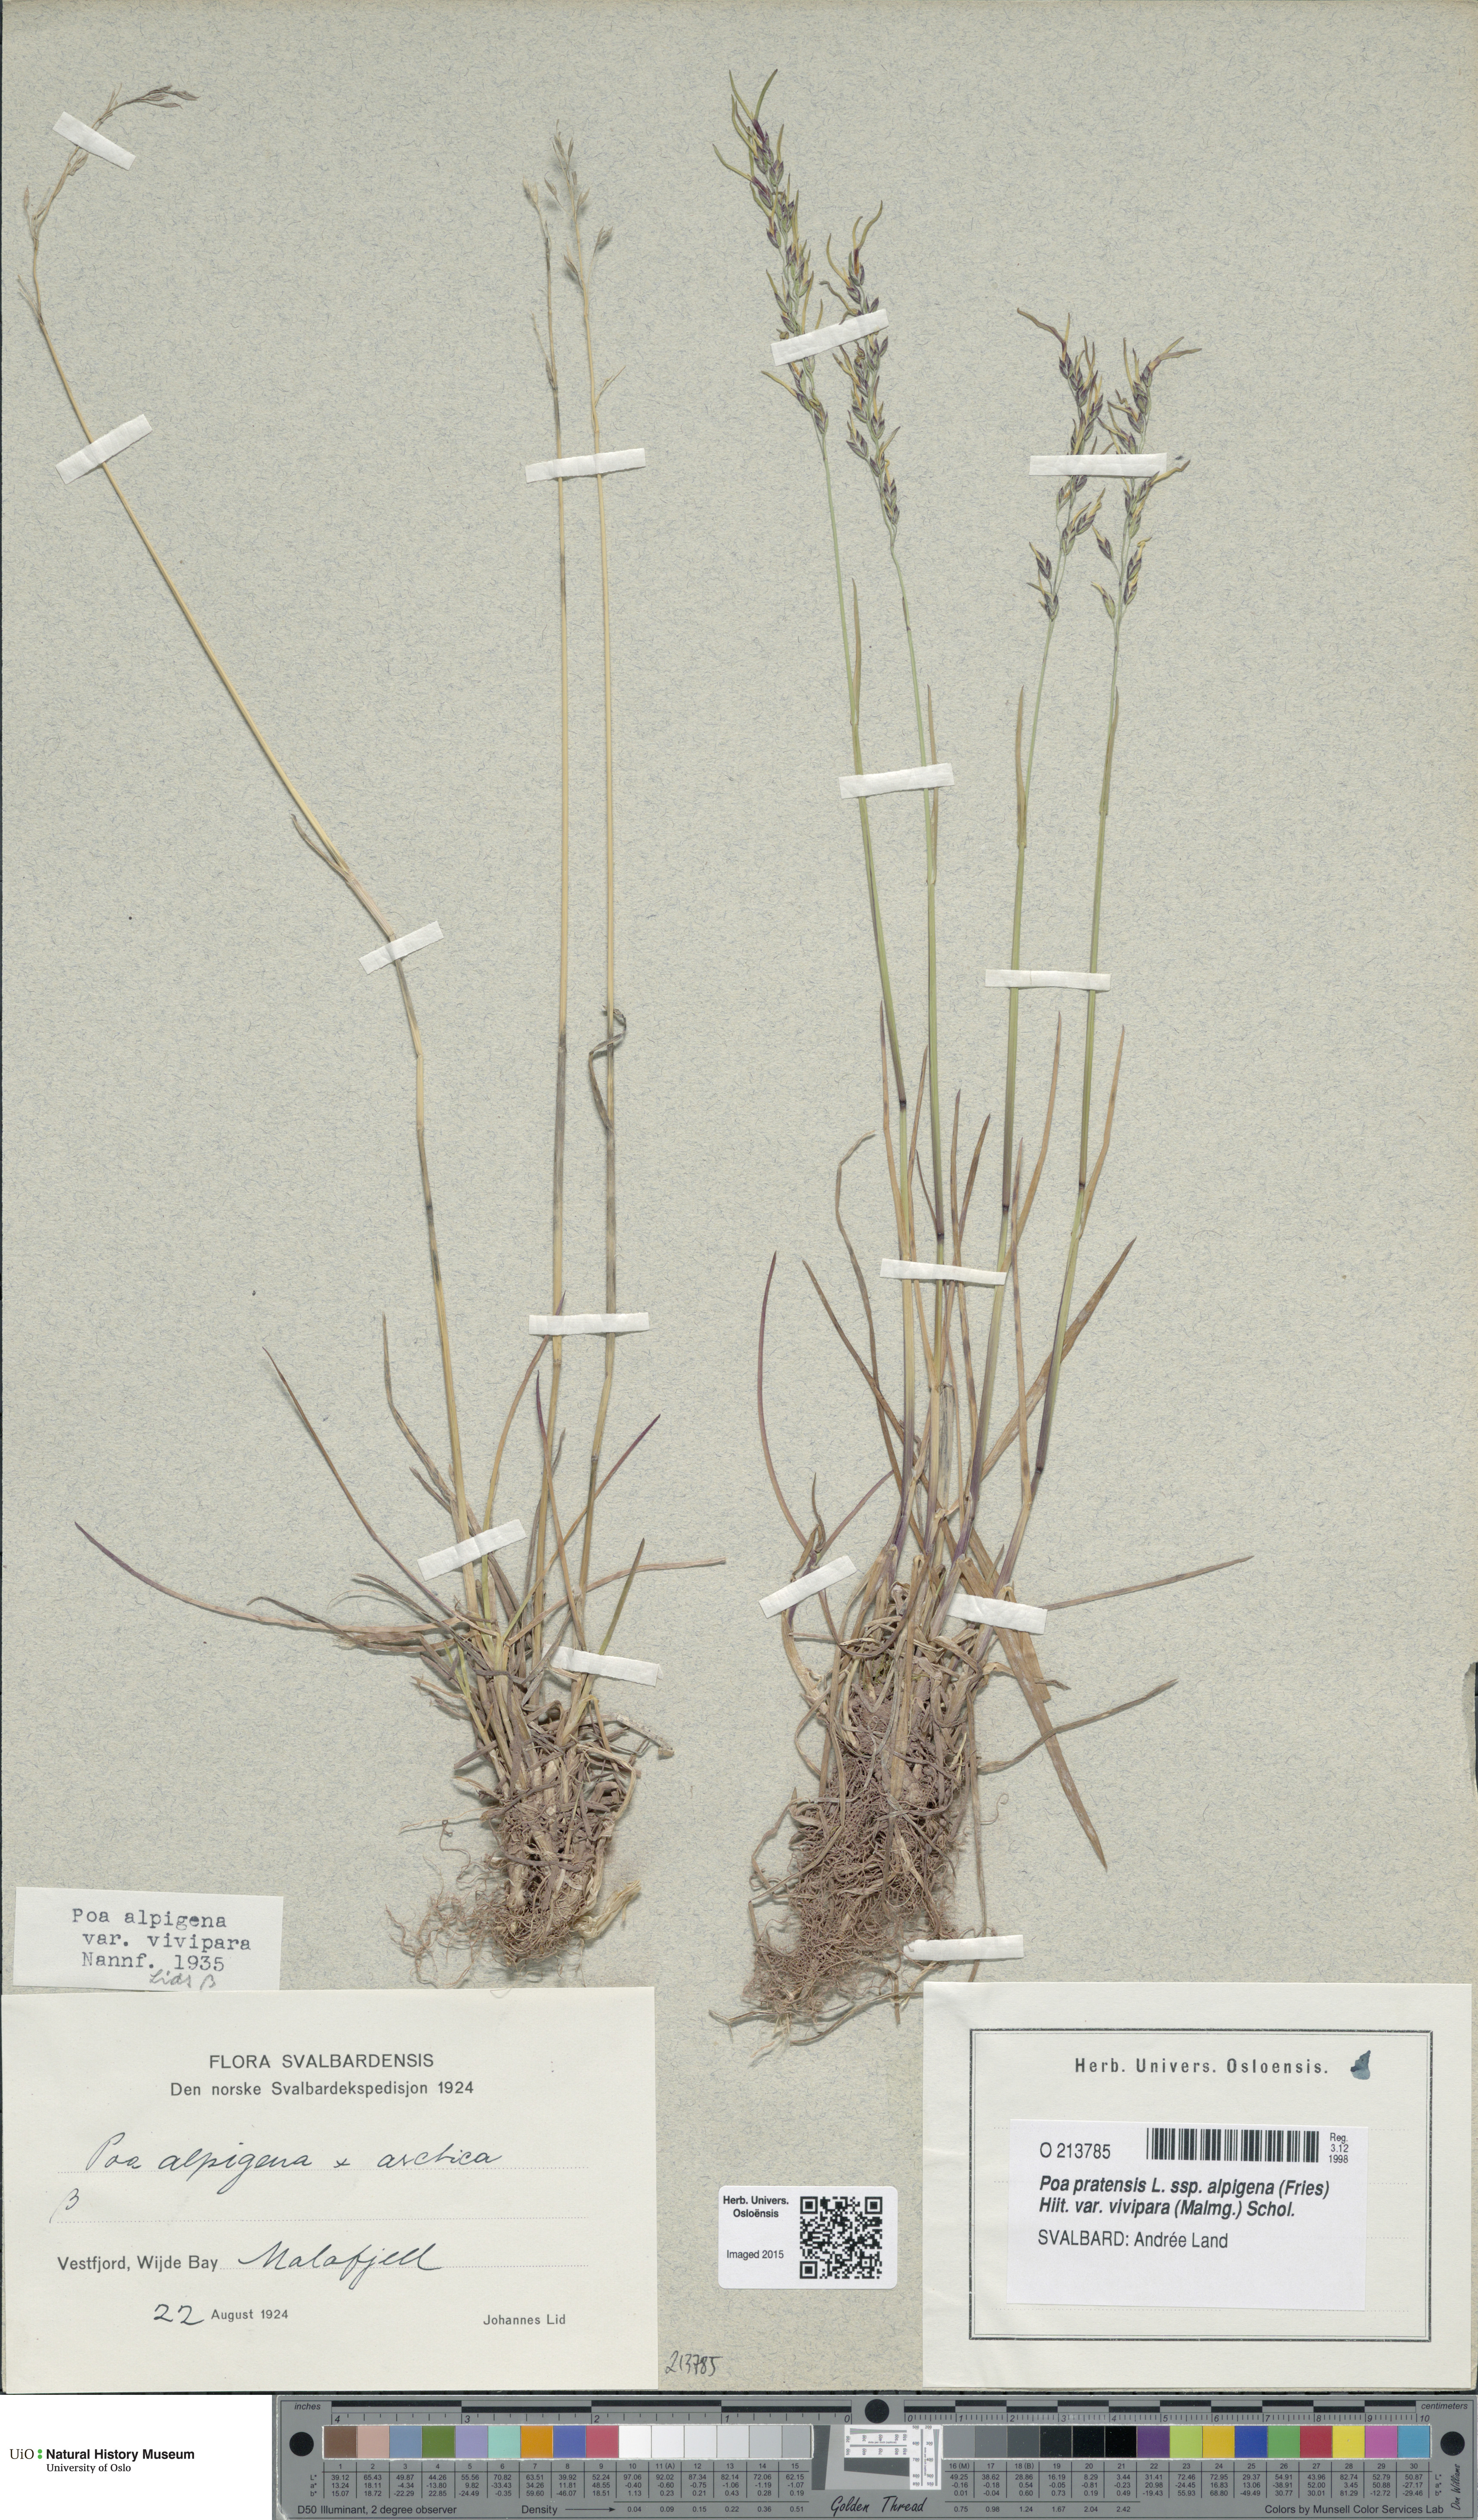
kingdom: Plantae
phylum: Tracheophyta
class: Liliopsida
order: Poales
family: Poaceae
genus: Poa
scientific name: Poa arctica
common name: Arctic bluegrass
